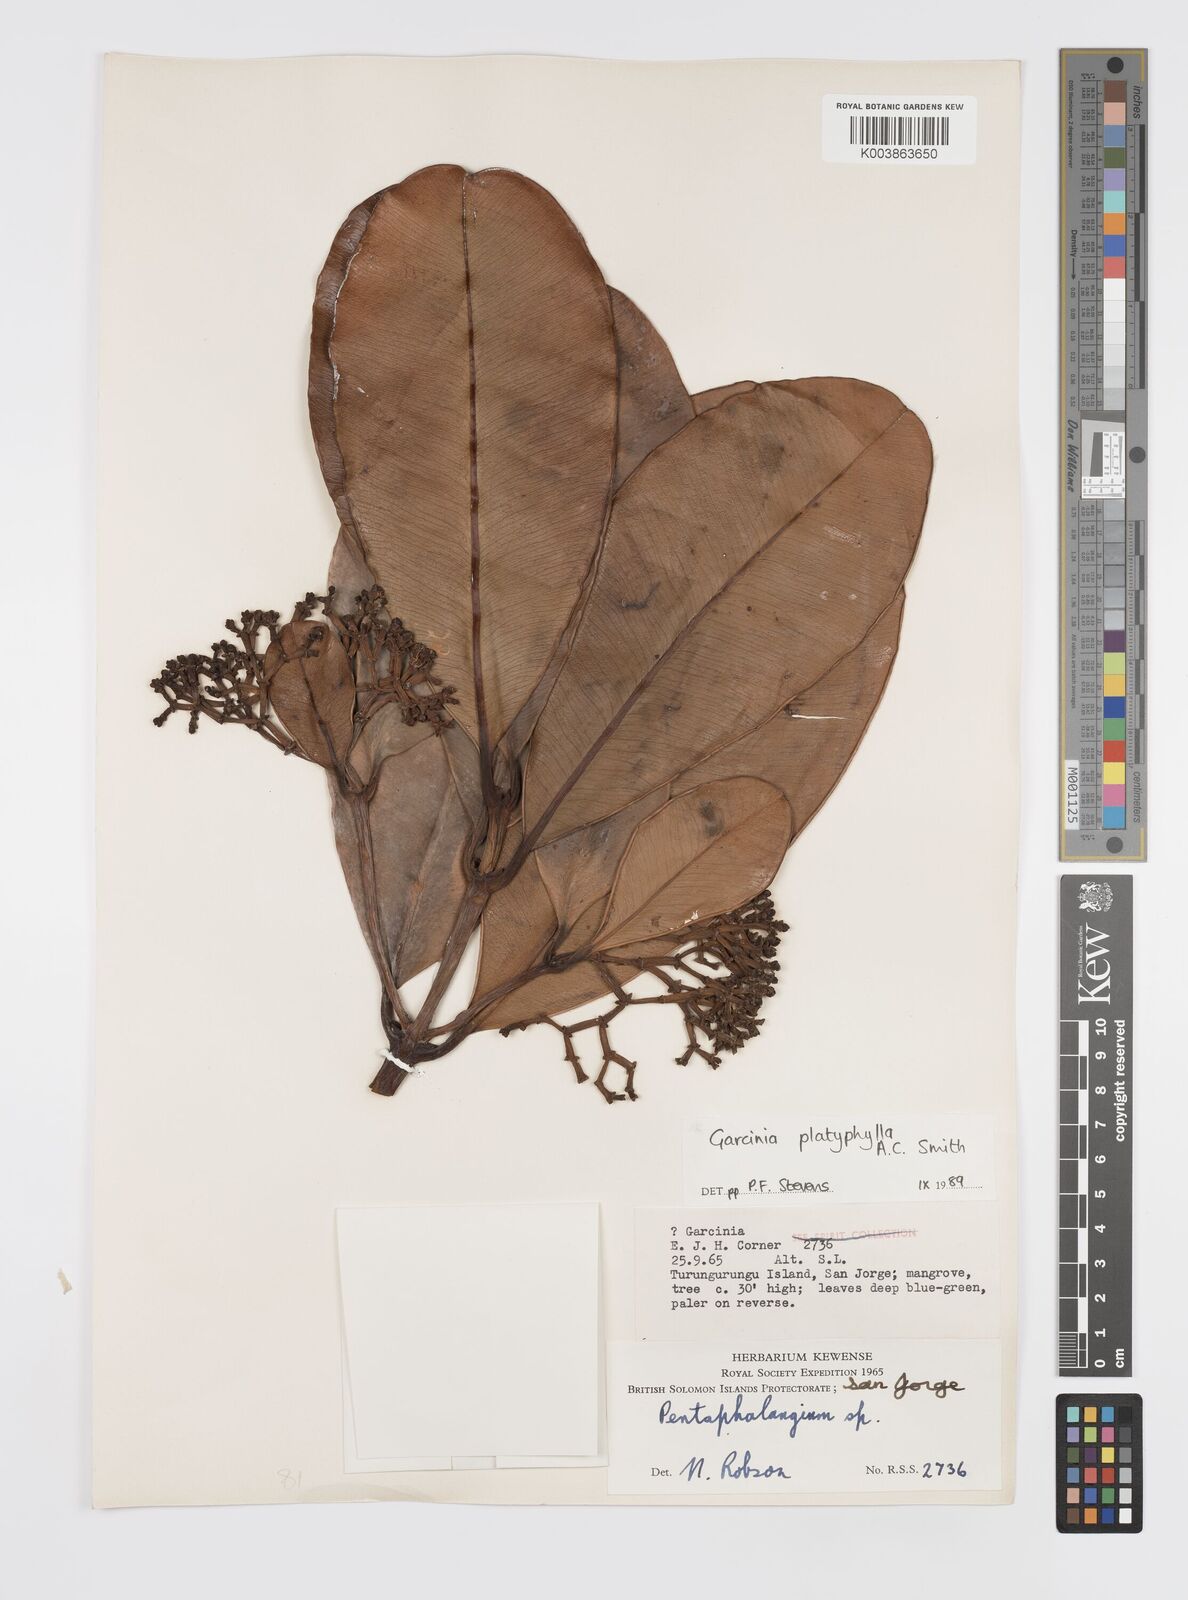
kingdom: Plantae
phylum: Tracheophyta
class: Magnoliopsida
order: Malpighiales
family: Clusiaceae
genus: Garcinia
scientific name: Garcinia platyphylla
